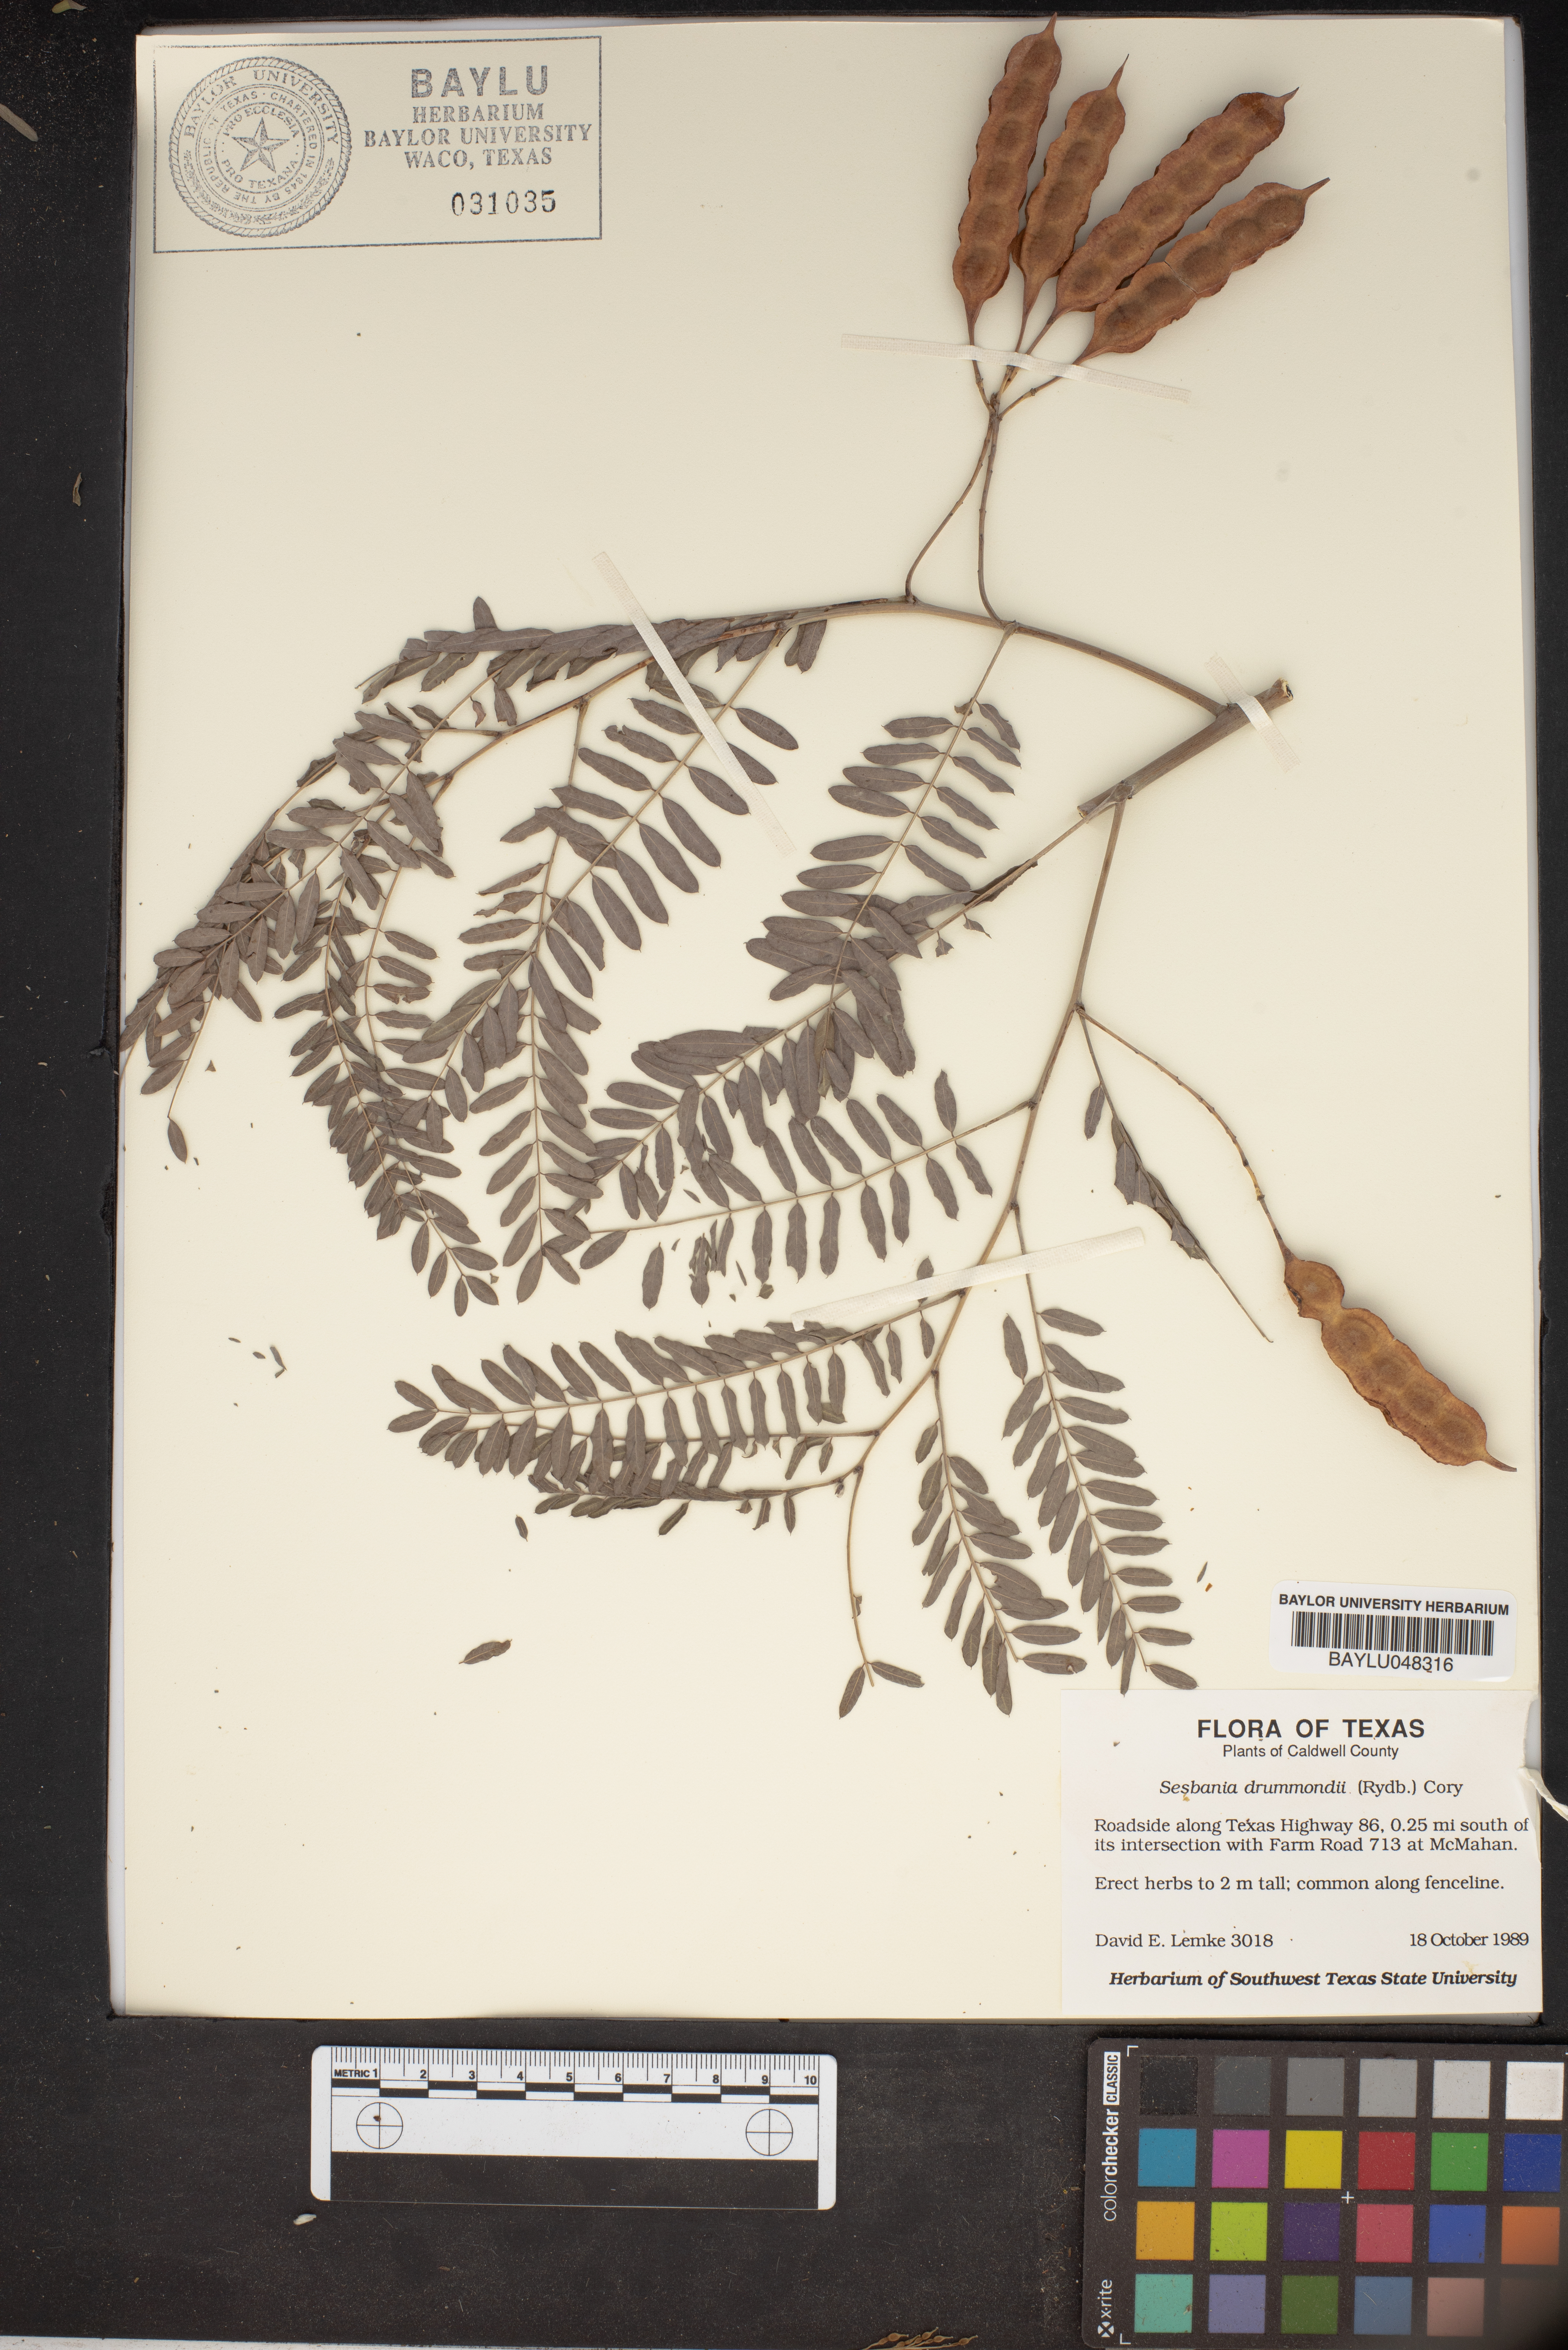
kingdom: Plantae
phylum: Tracheophyta
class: Magnoliopsida
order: Fabales
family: Fabaceae
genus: Sesbania
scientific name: Sesbania drummondii
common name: Poison-bean
